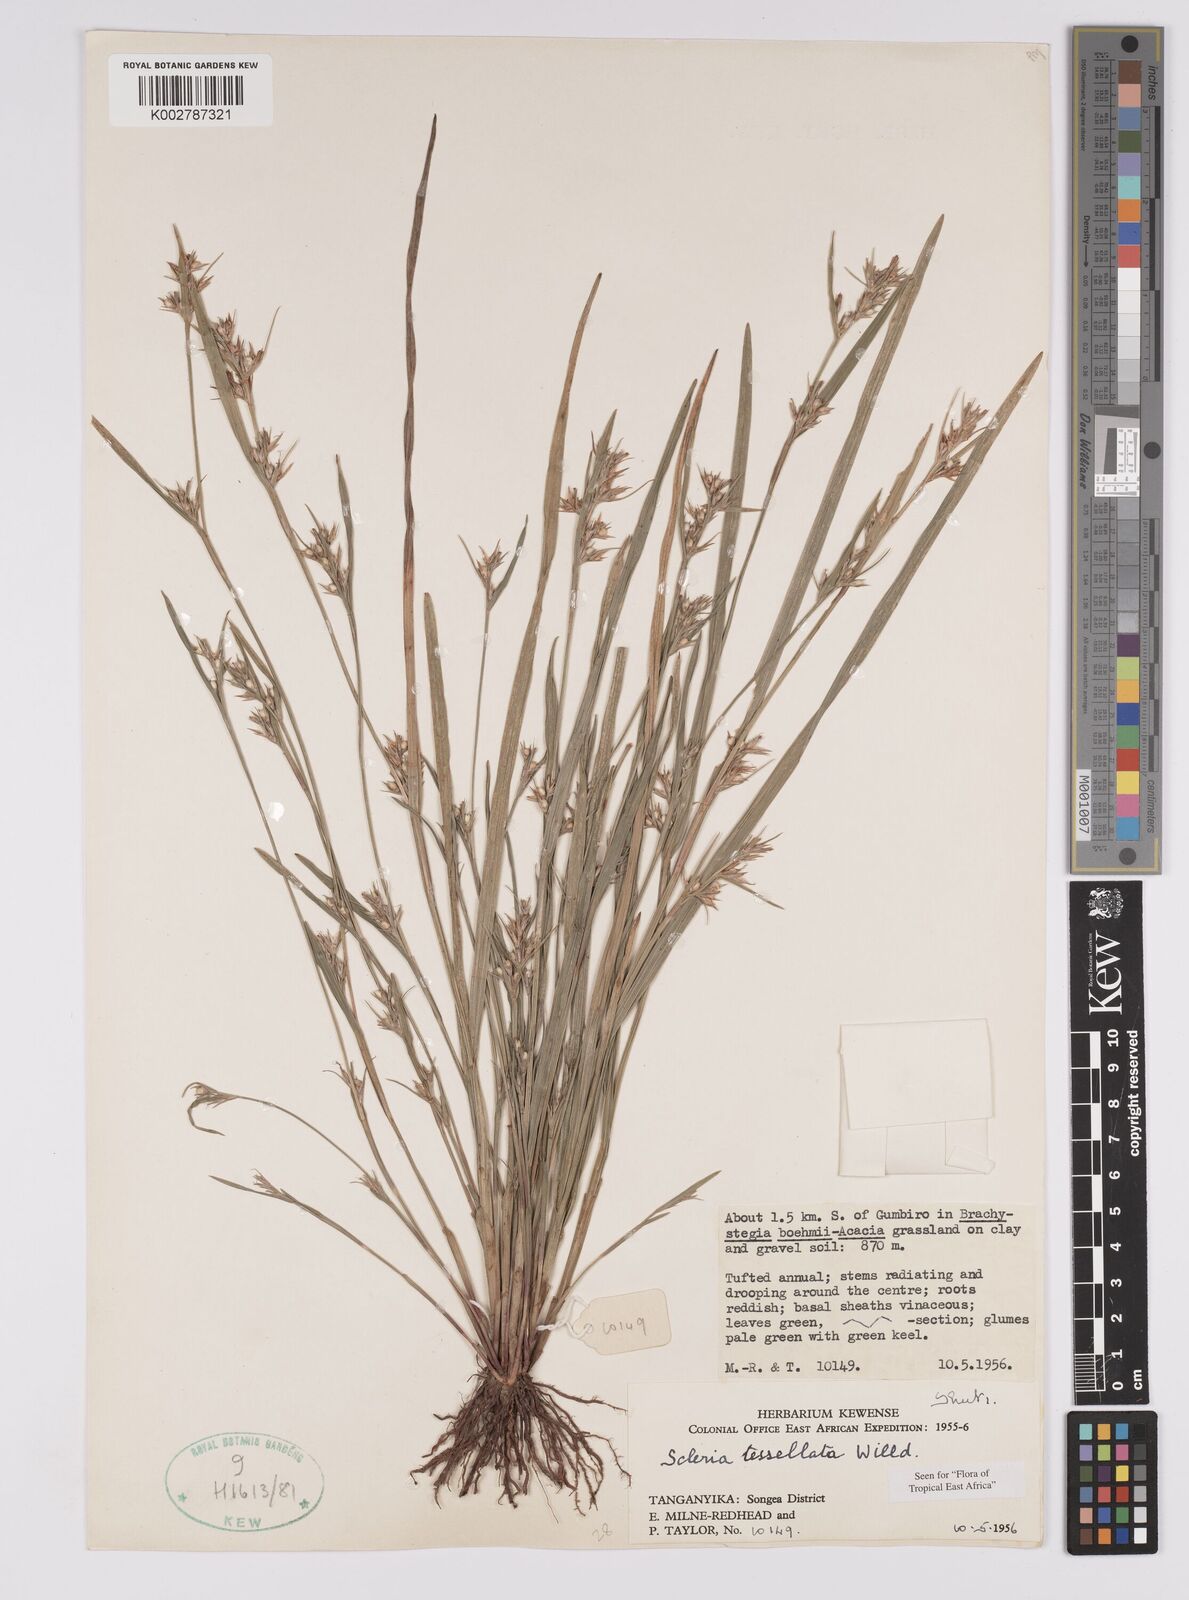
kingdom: Plantae
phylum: Tracheophyta
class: Liliopsida
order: Poales
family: Cyperaceae
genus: Scleria
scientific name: Scleria tessellata
